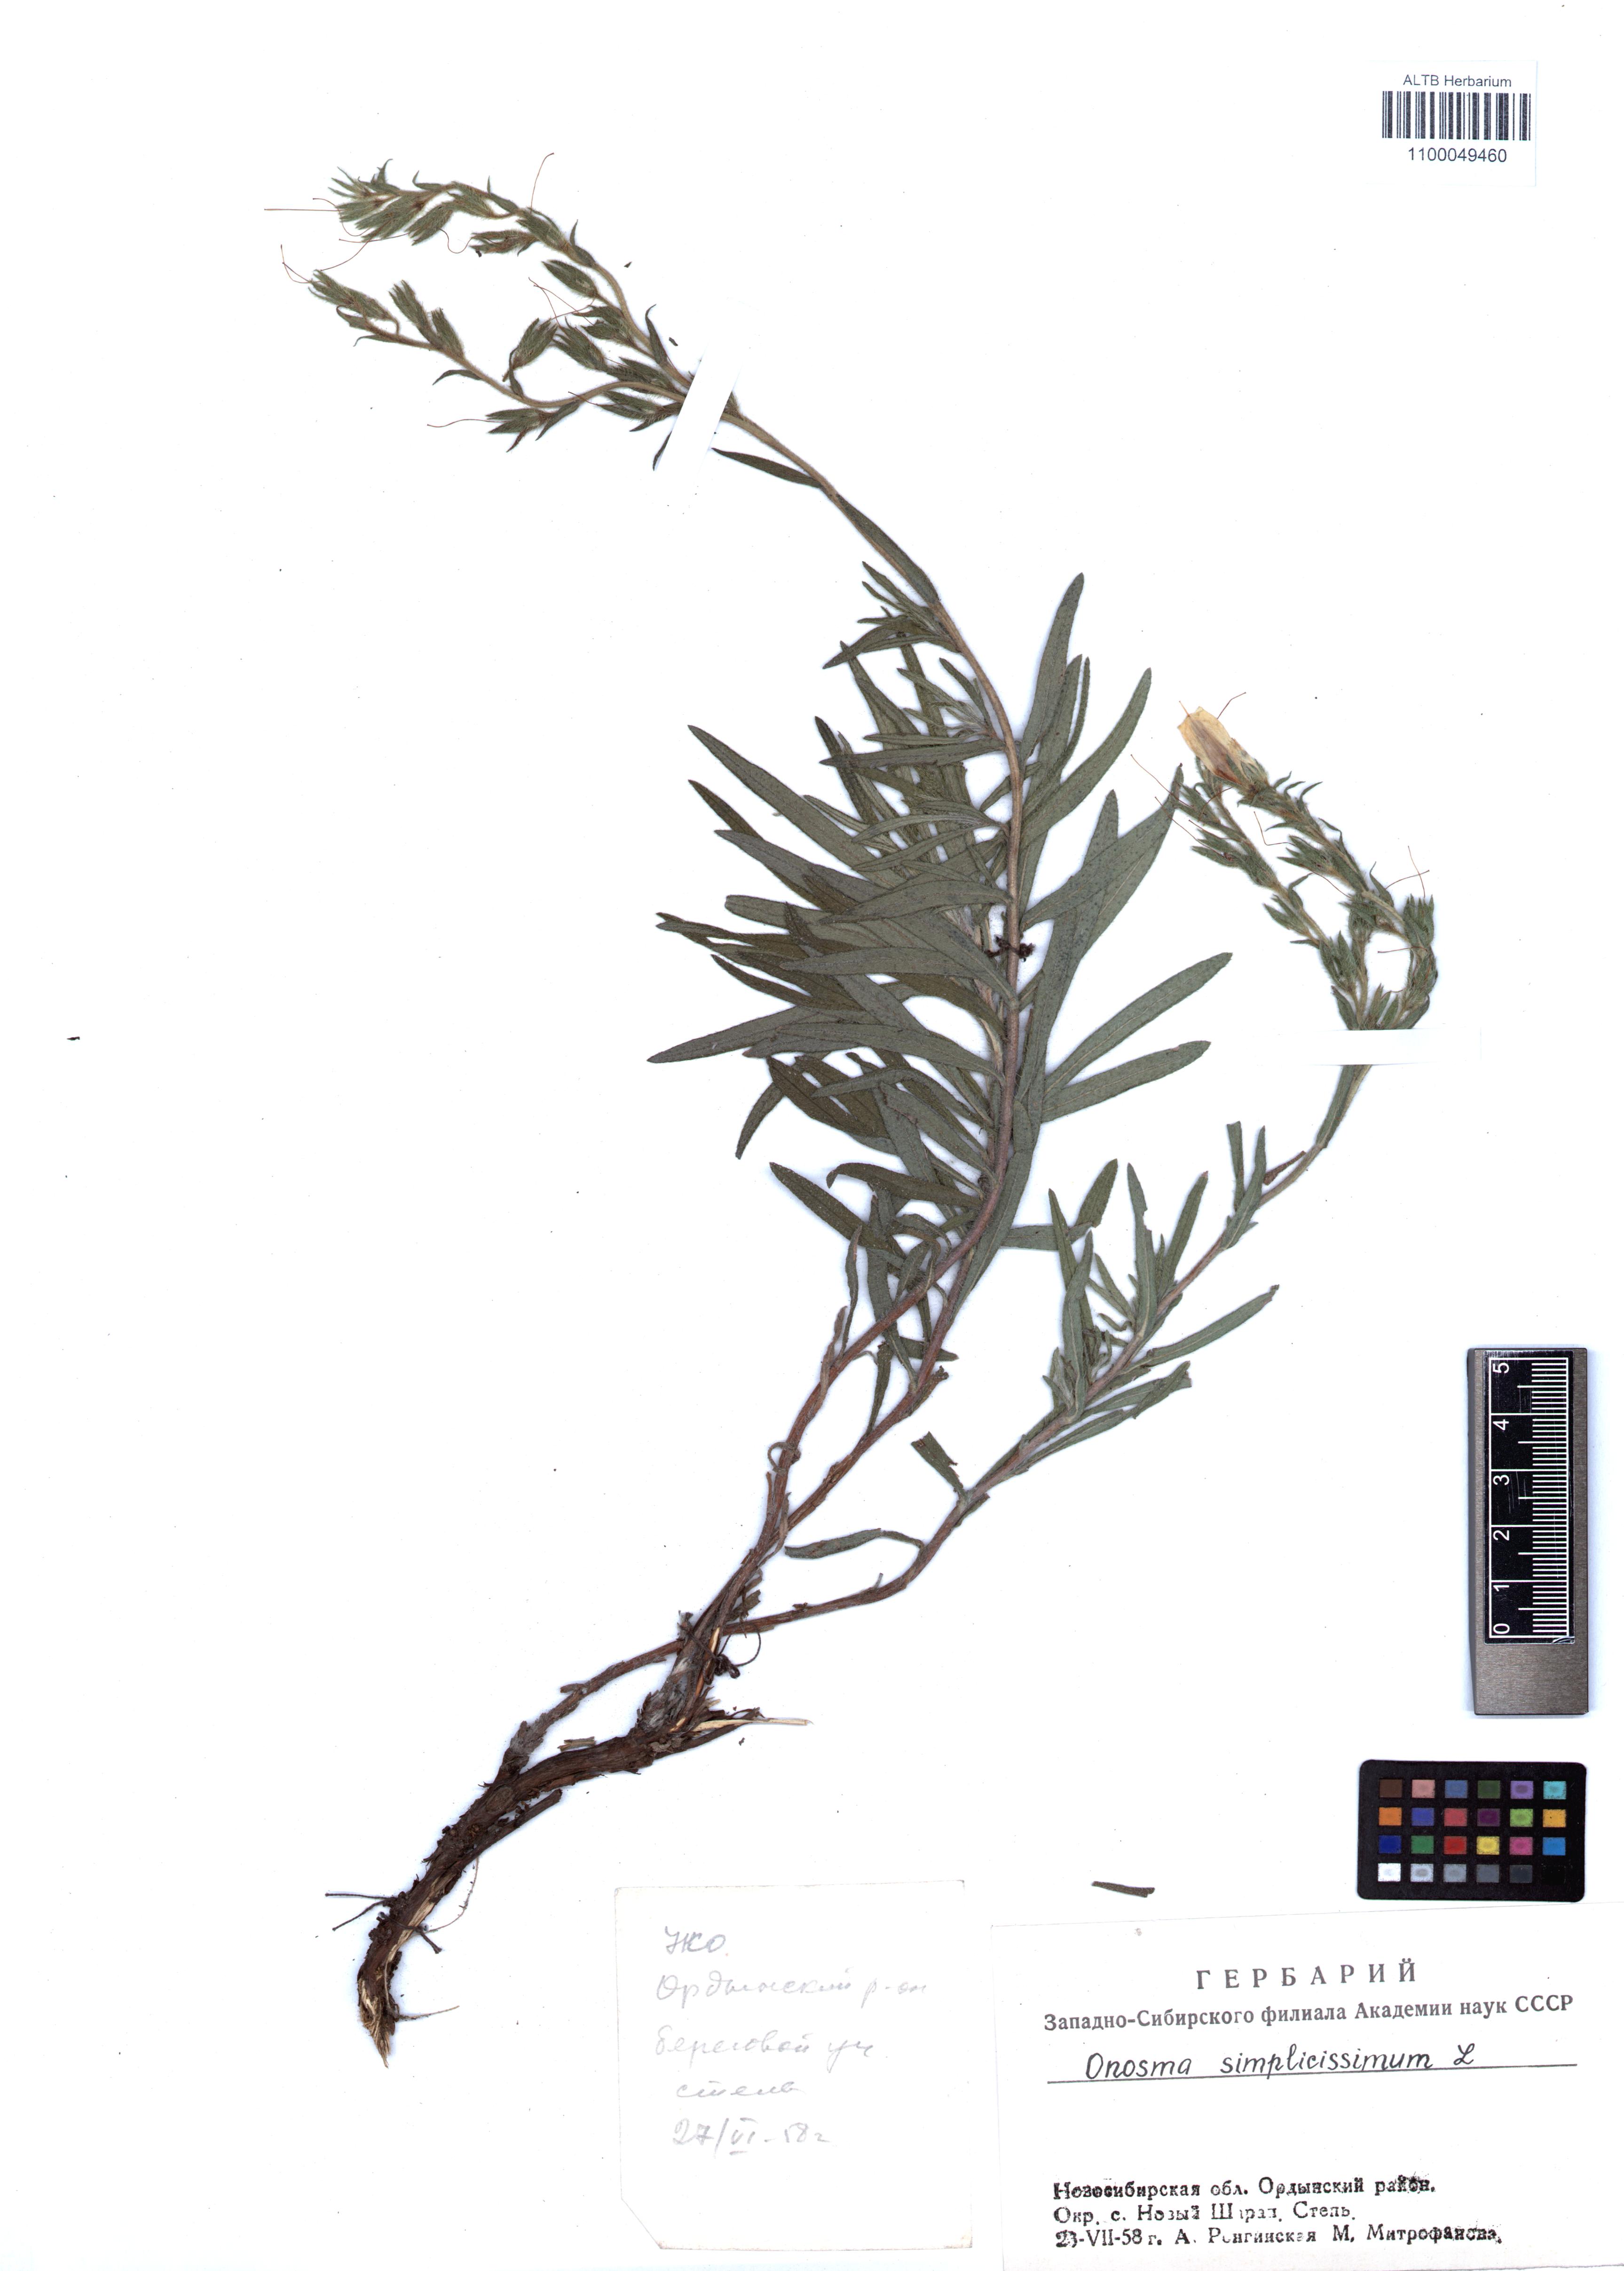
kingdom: Plantae
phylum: Tracheophyta
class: Magnoliopsida
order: Boraginales
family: Boraginaceae
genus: Onosma
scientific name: Onosma simplicissima
